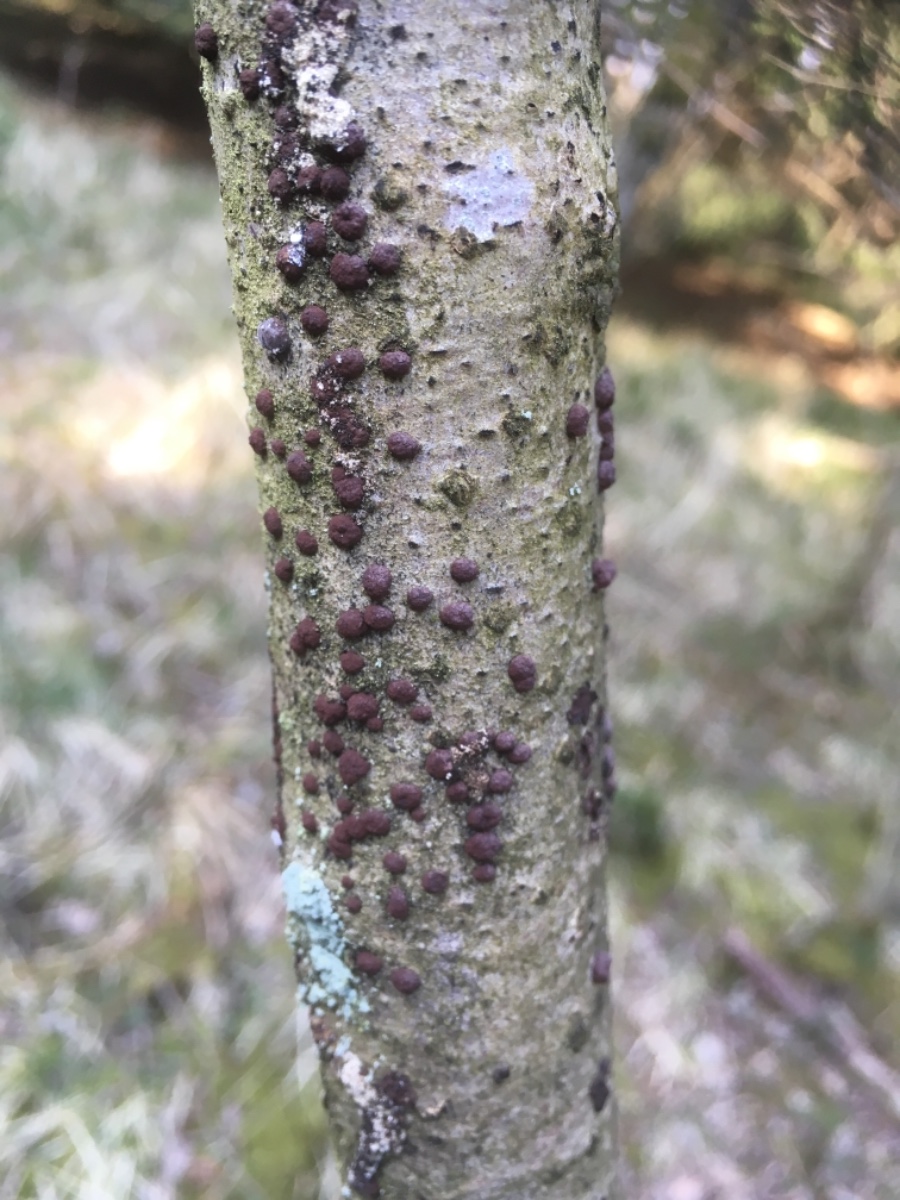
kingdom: Fungi
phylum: Ascomycota
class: Sordariomycetes
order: Xylariales
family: Hypoxylaceae
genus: Hypoxylon
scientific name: Hypoxylon fuscum
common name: kegleformet kulbær
